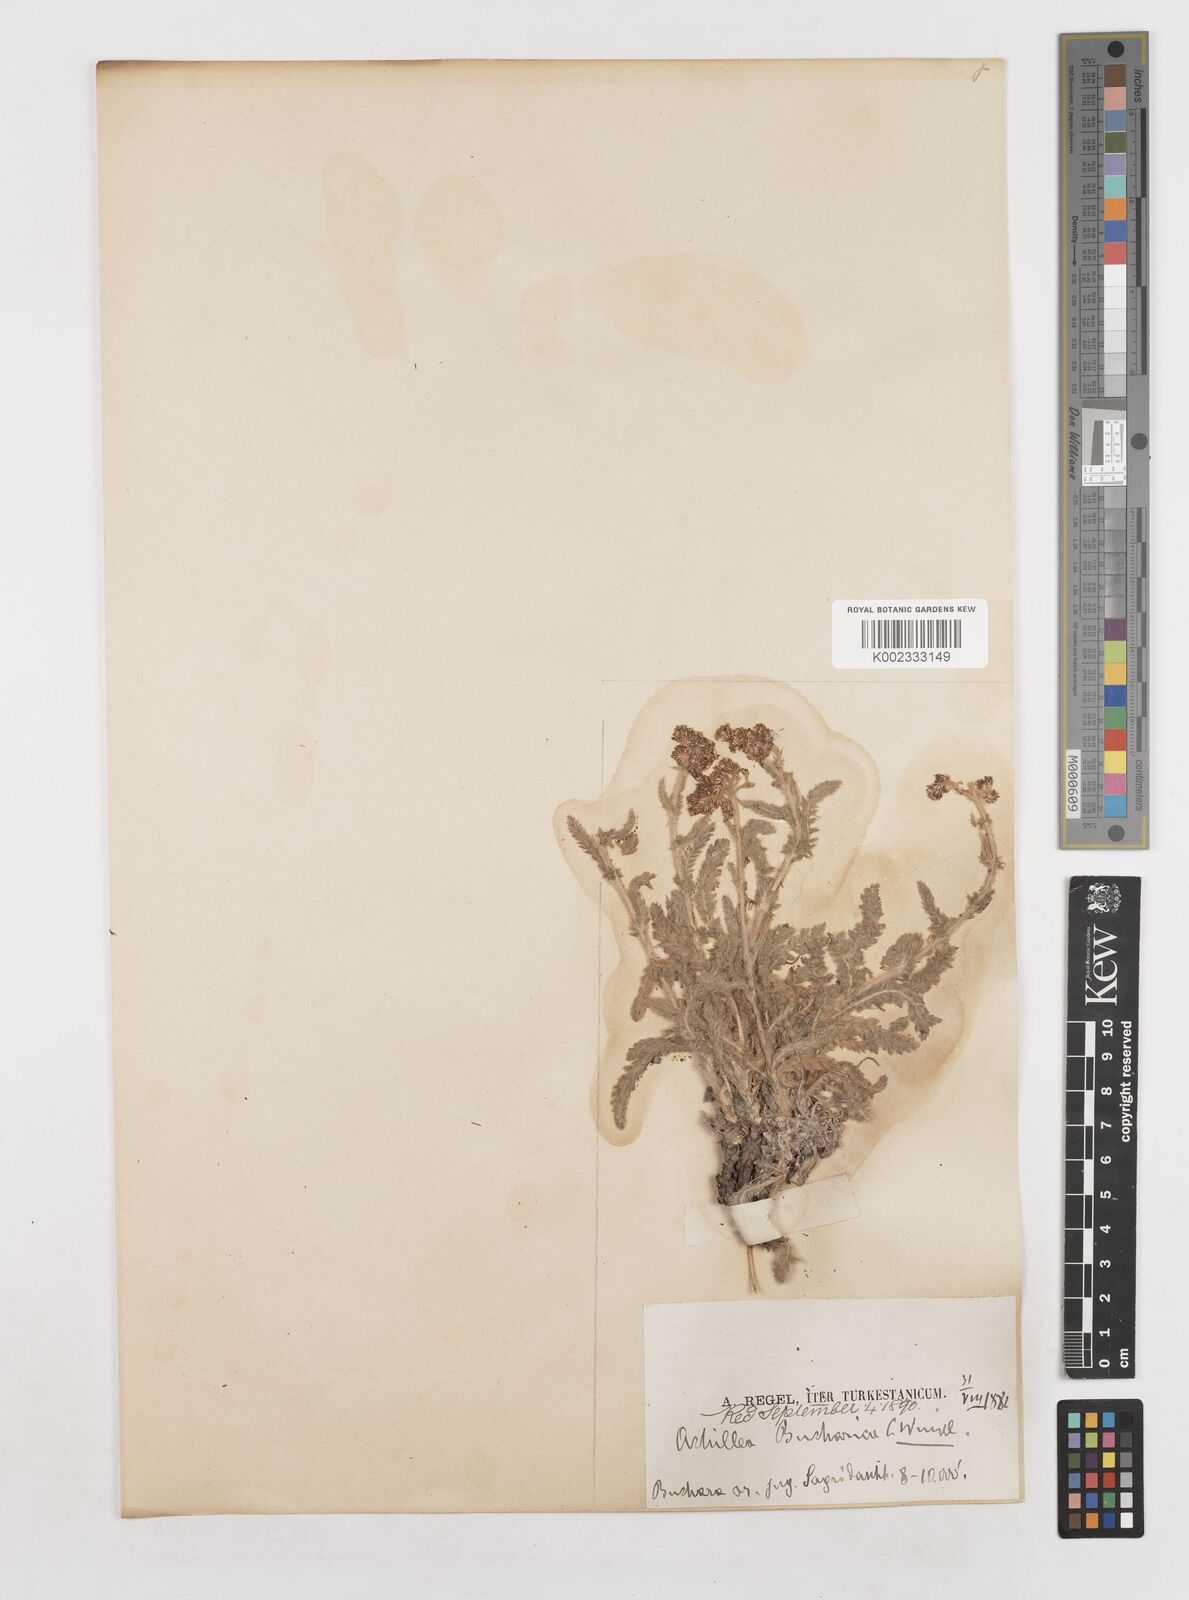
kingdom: Plantae
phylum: Tracheophyta
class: Magnoliopsida
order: Asterales
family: Asteraceae
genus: Achillea
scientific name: Achillea bucharica
